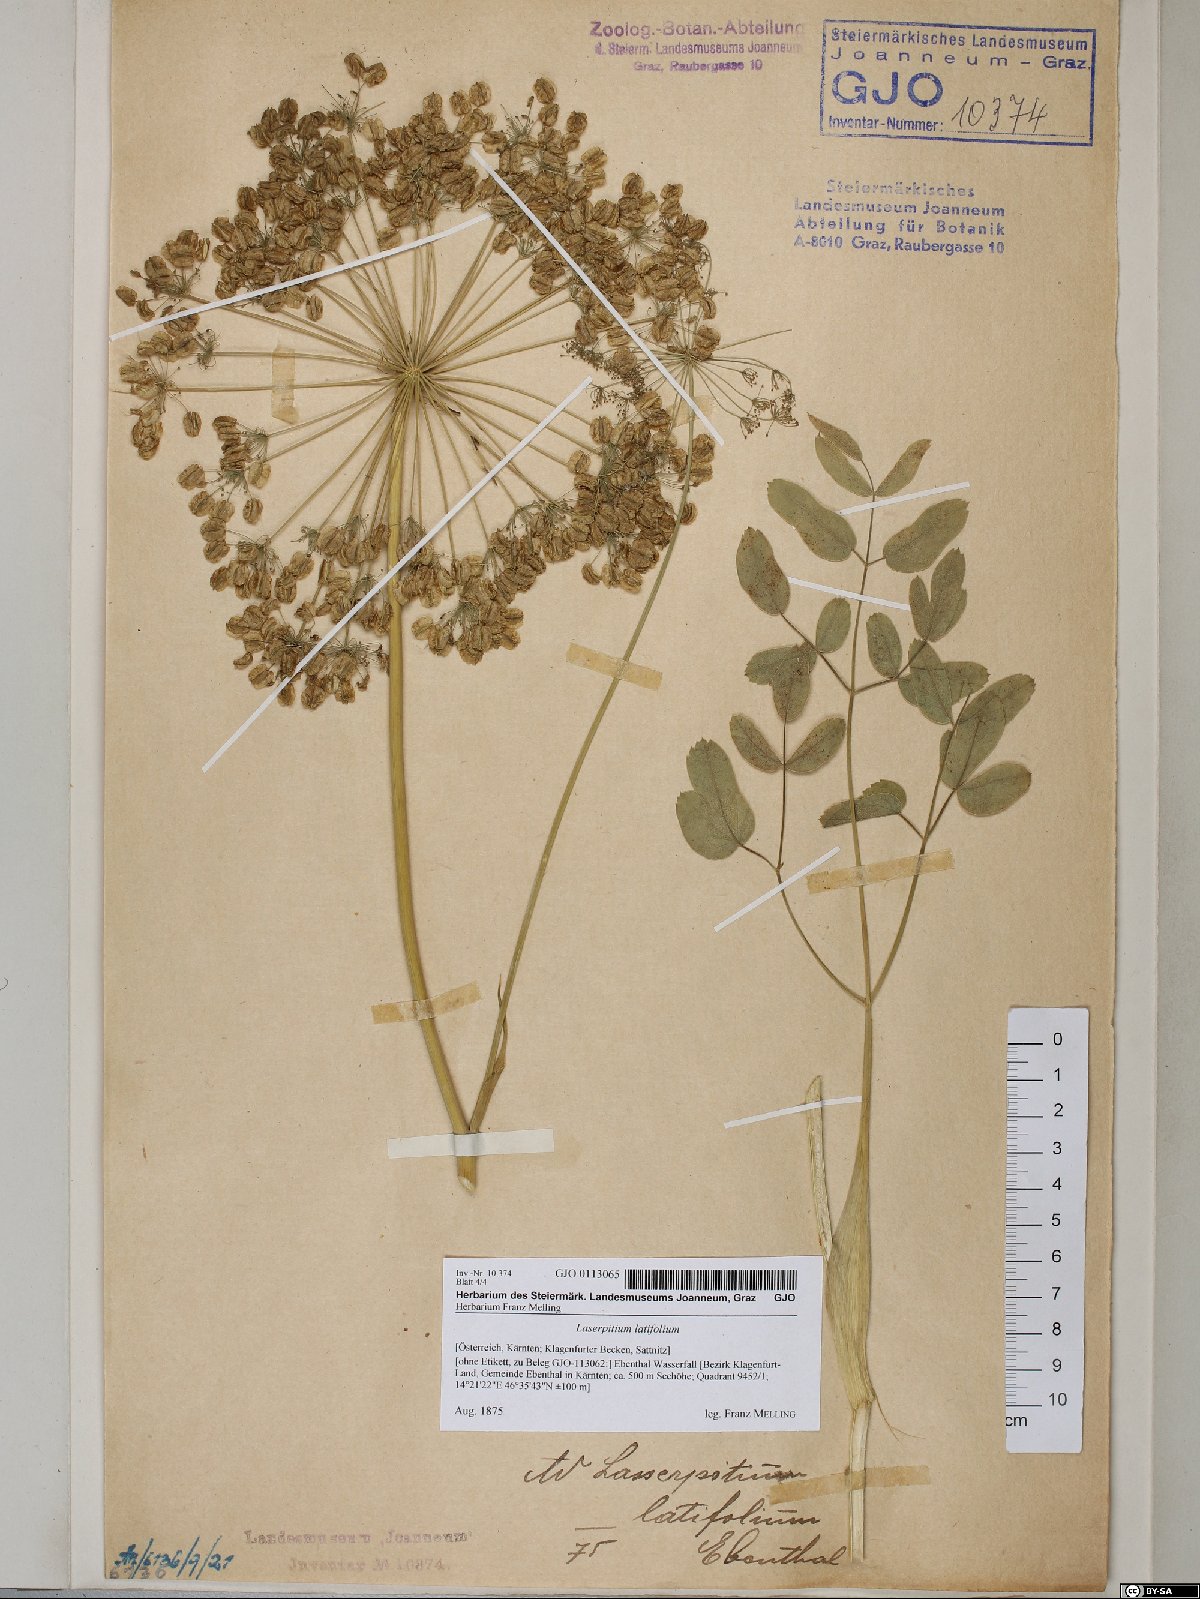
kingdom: Plantae
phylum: Tracheophyta
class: Magnoliopsida
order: Apiales
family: Apiaceae
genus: Laserpitium
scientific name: Laserpitium latifolium
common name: Broadleaf sermountain
